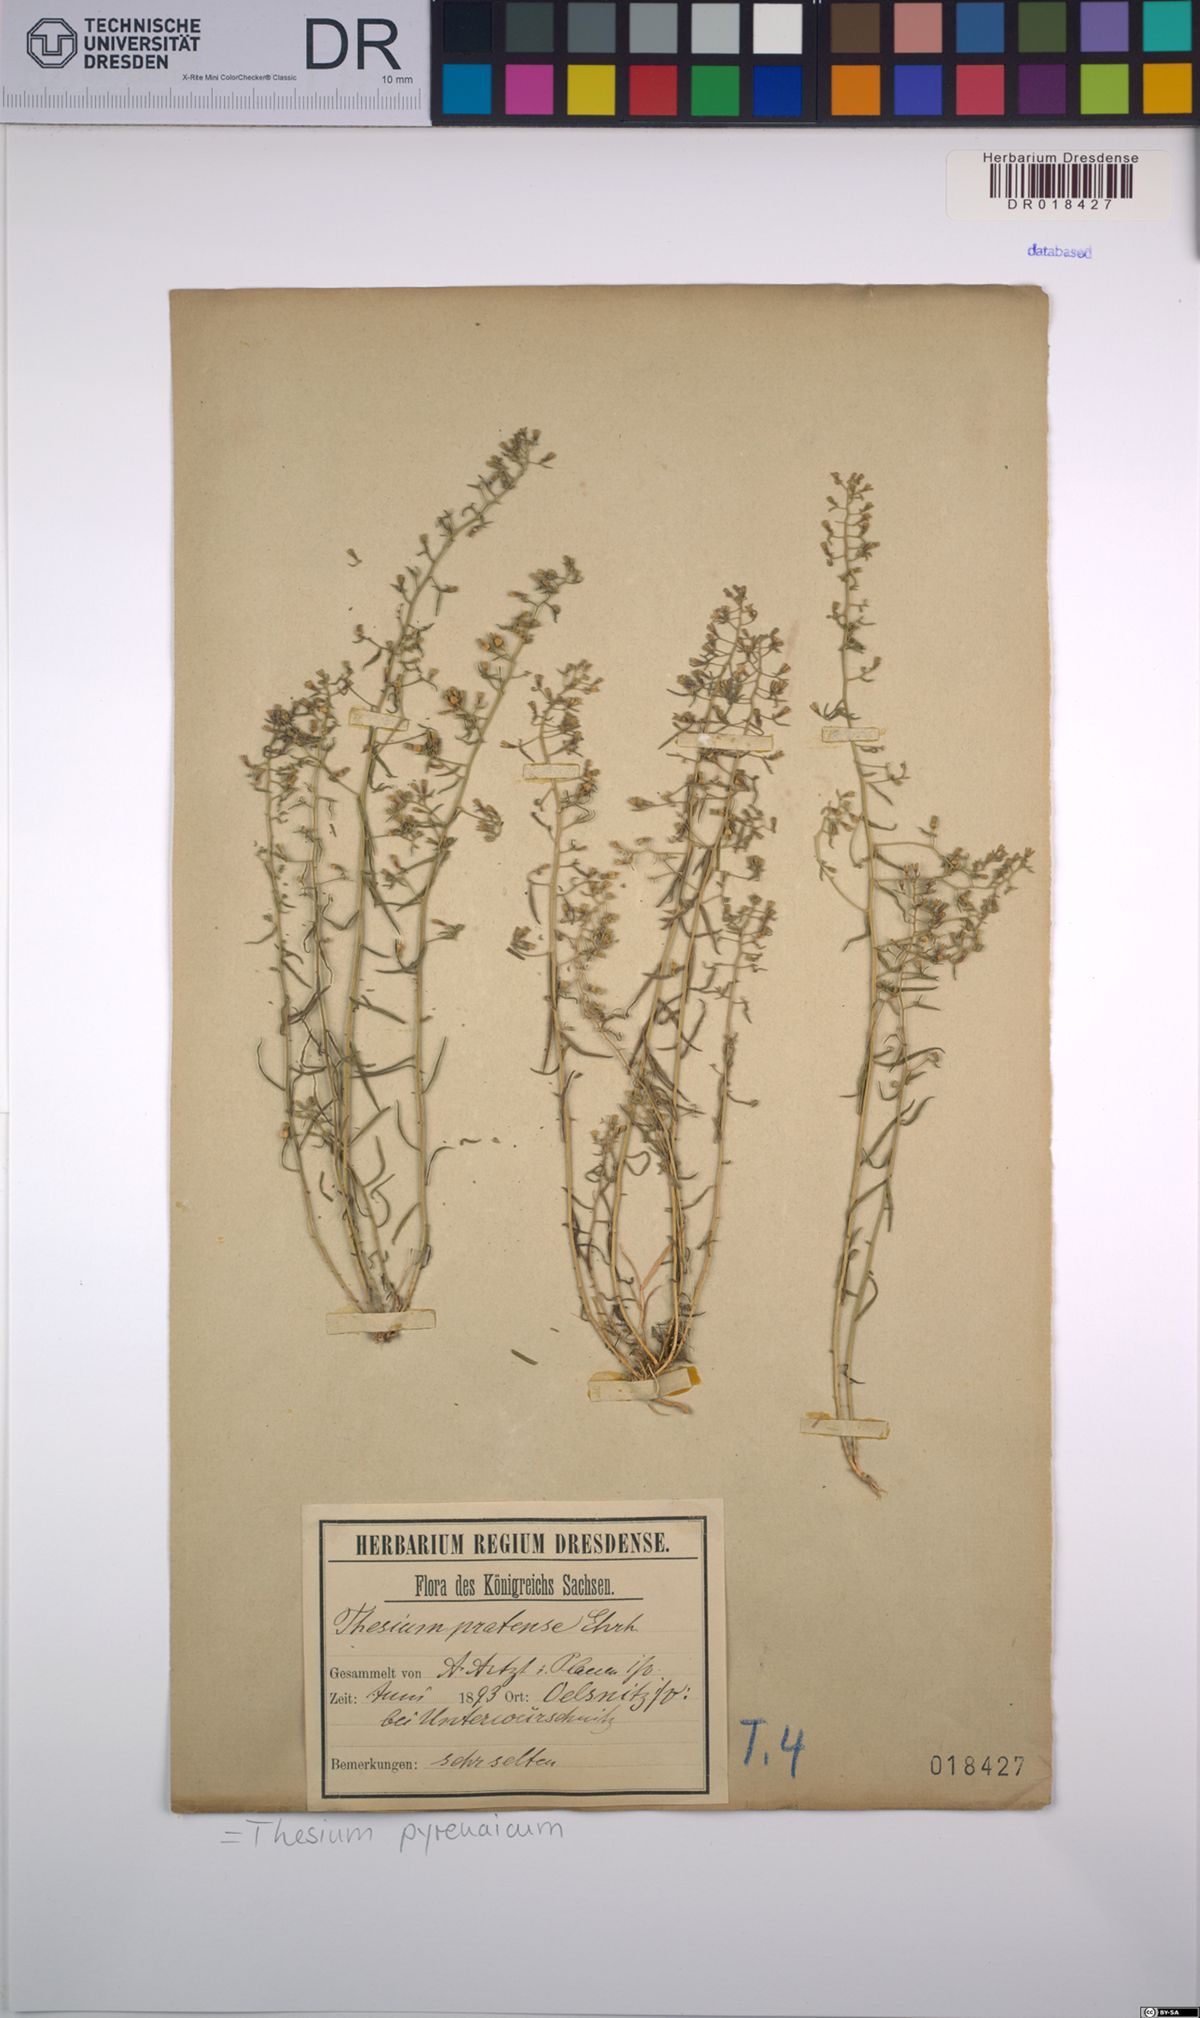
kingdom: Plantae
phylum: Tracheophyta
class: Magnoliopsida
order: Santalales
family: Thesiaceae
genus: Thesium
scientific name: Thesium pyrenaicum
